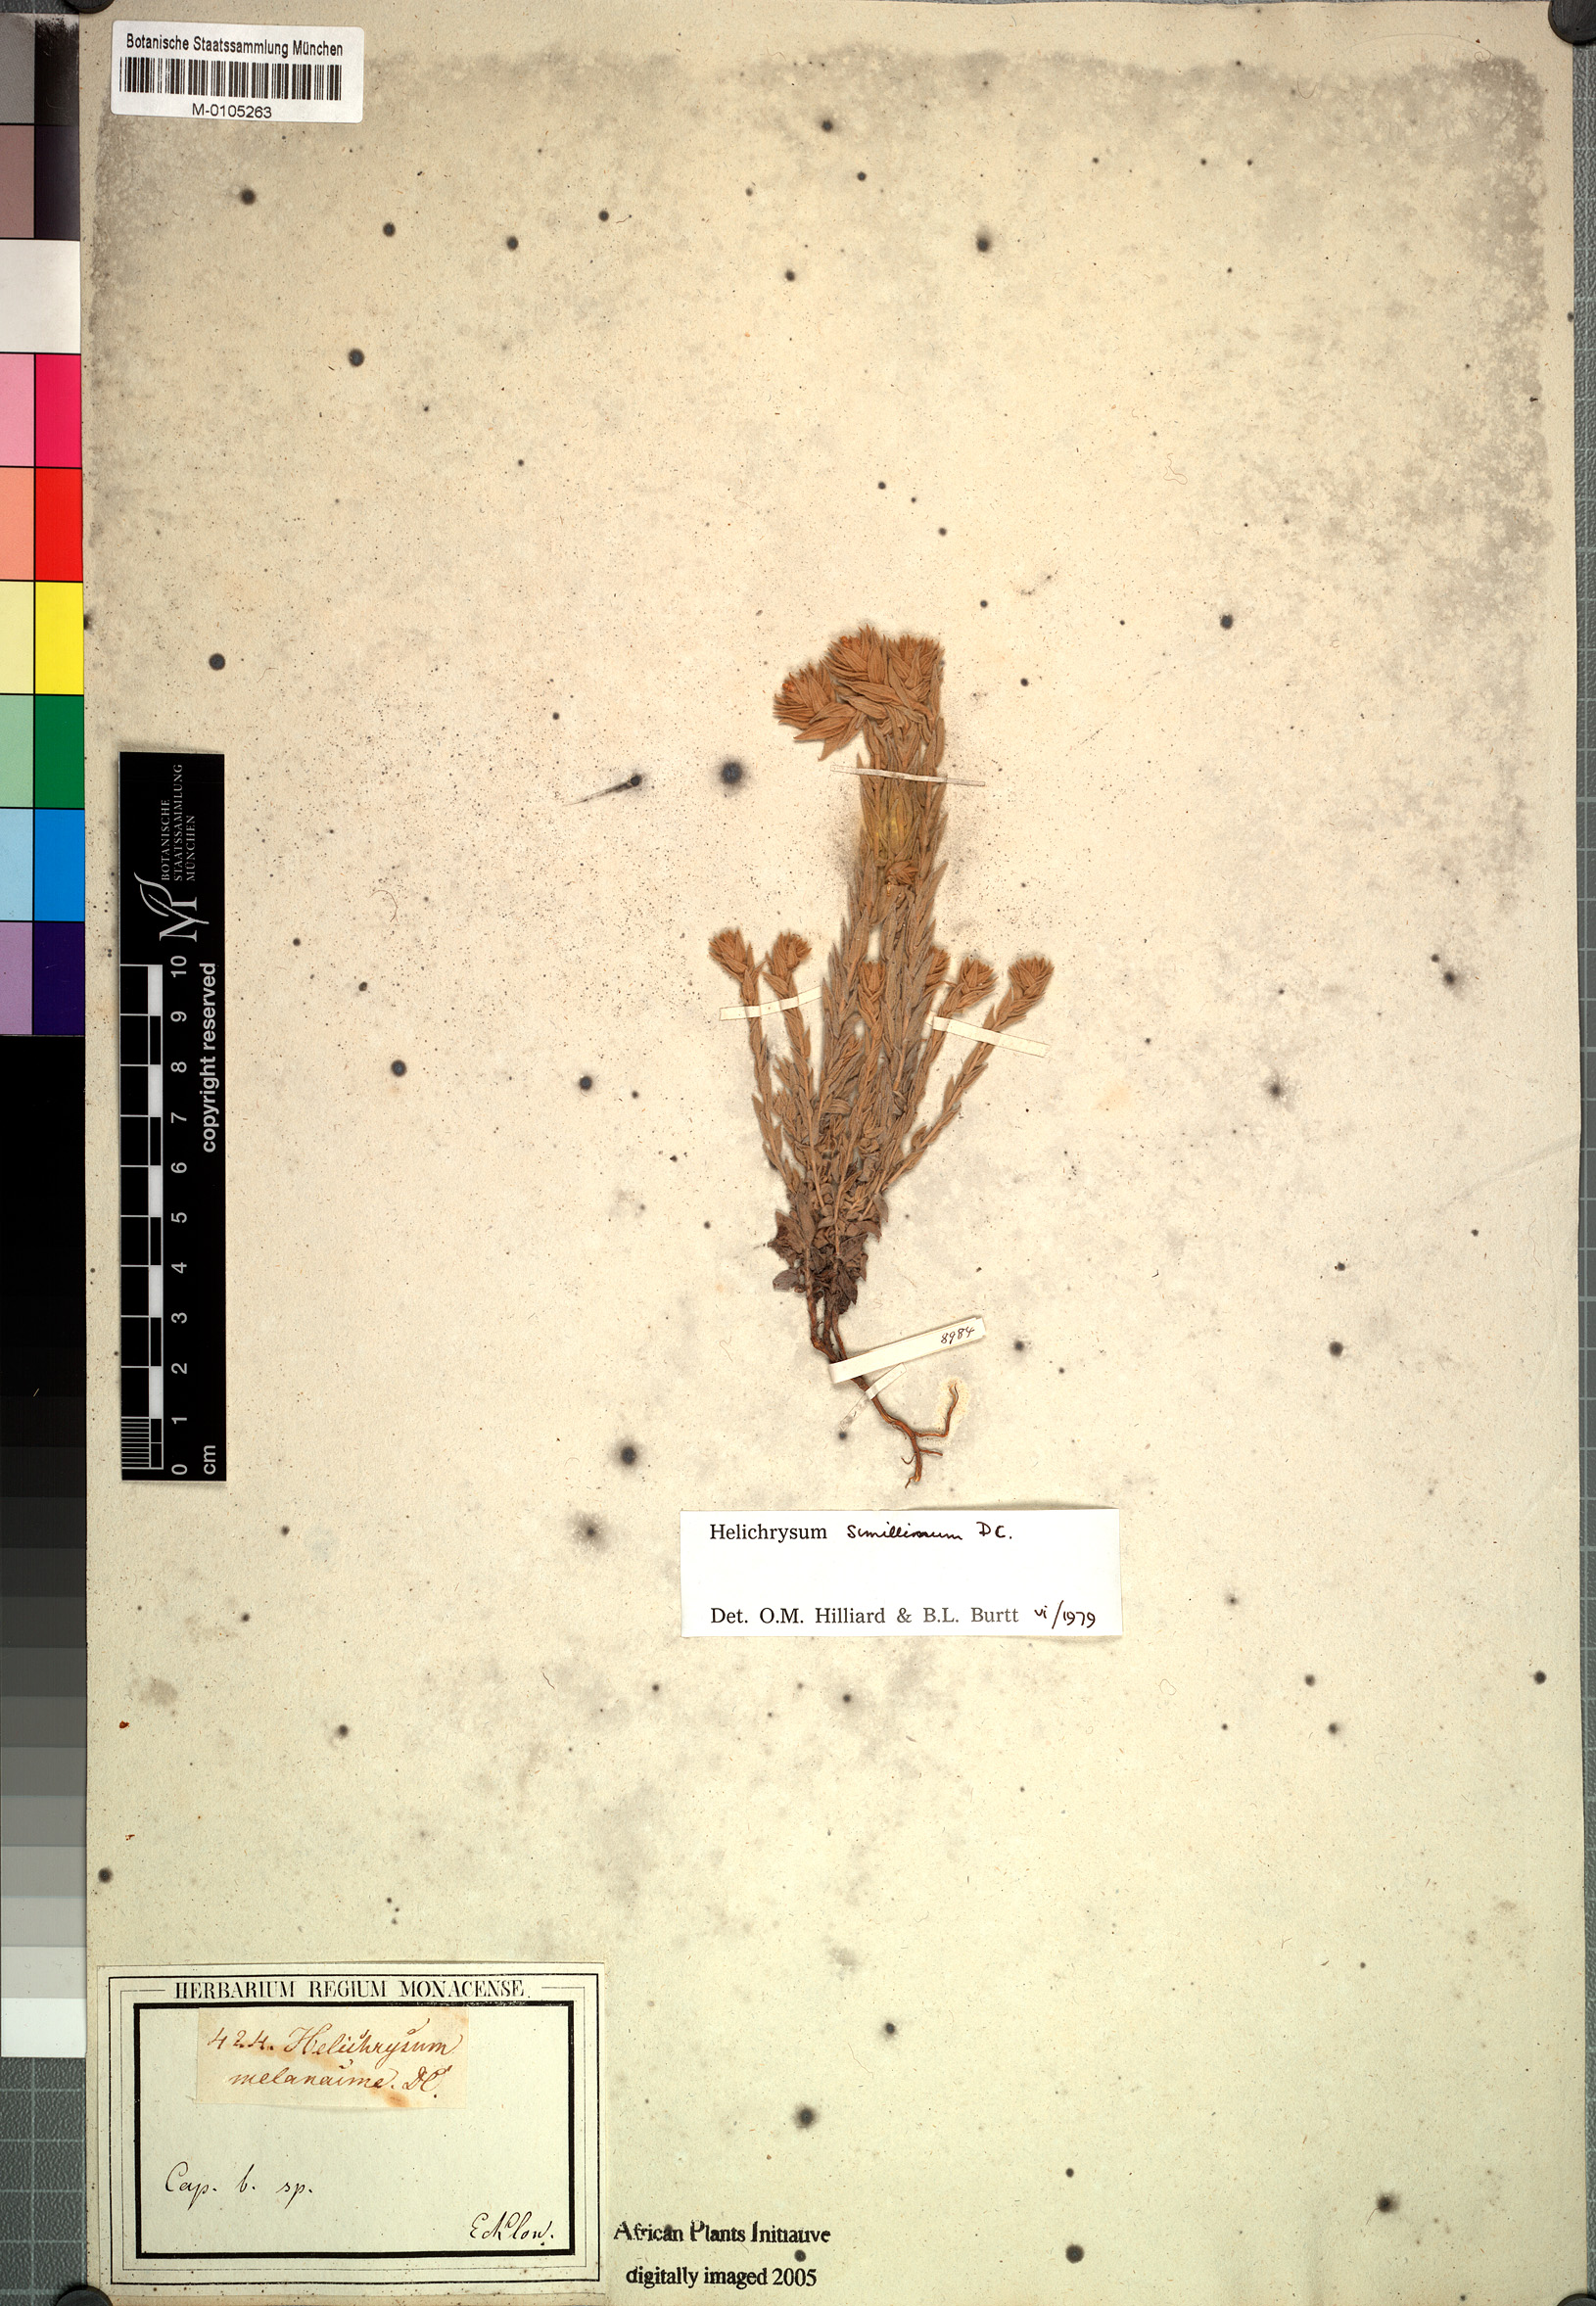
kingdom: Plantae
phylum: Tracheophyta
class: Magnoliopsida
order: Asterales
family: Asteraceae
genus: Helichrysum
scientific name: Helichrysum simillimum
